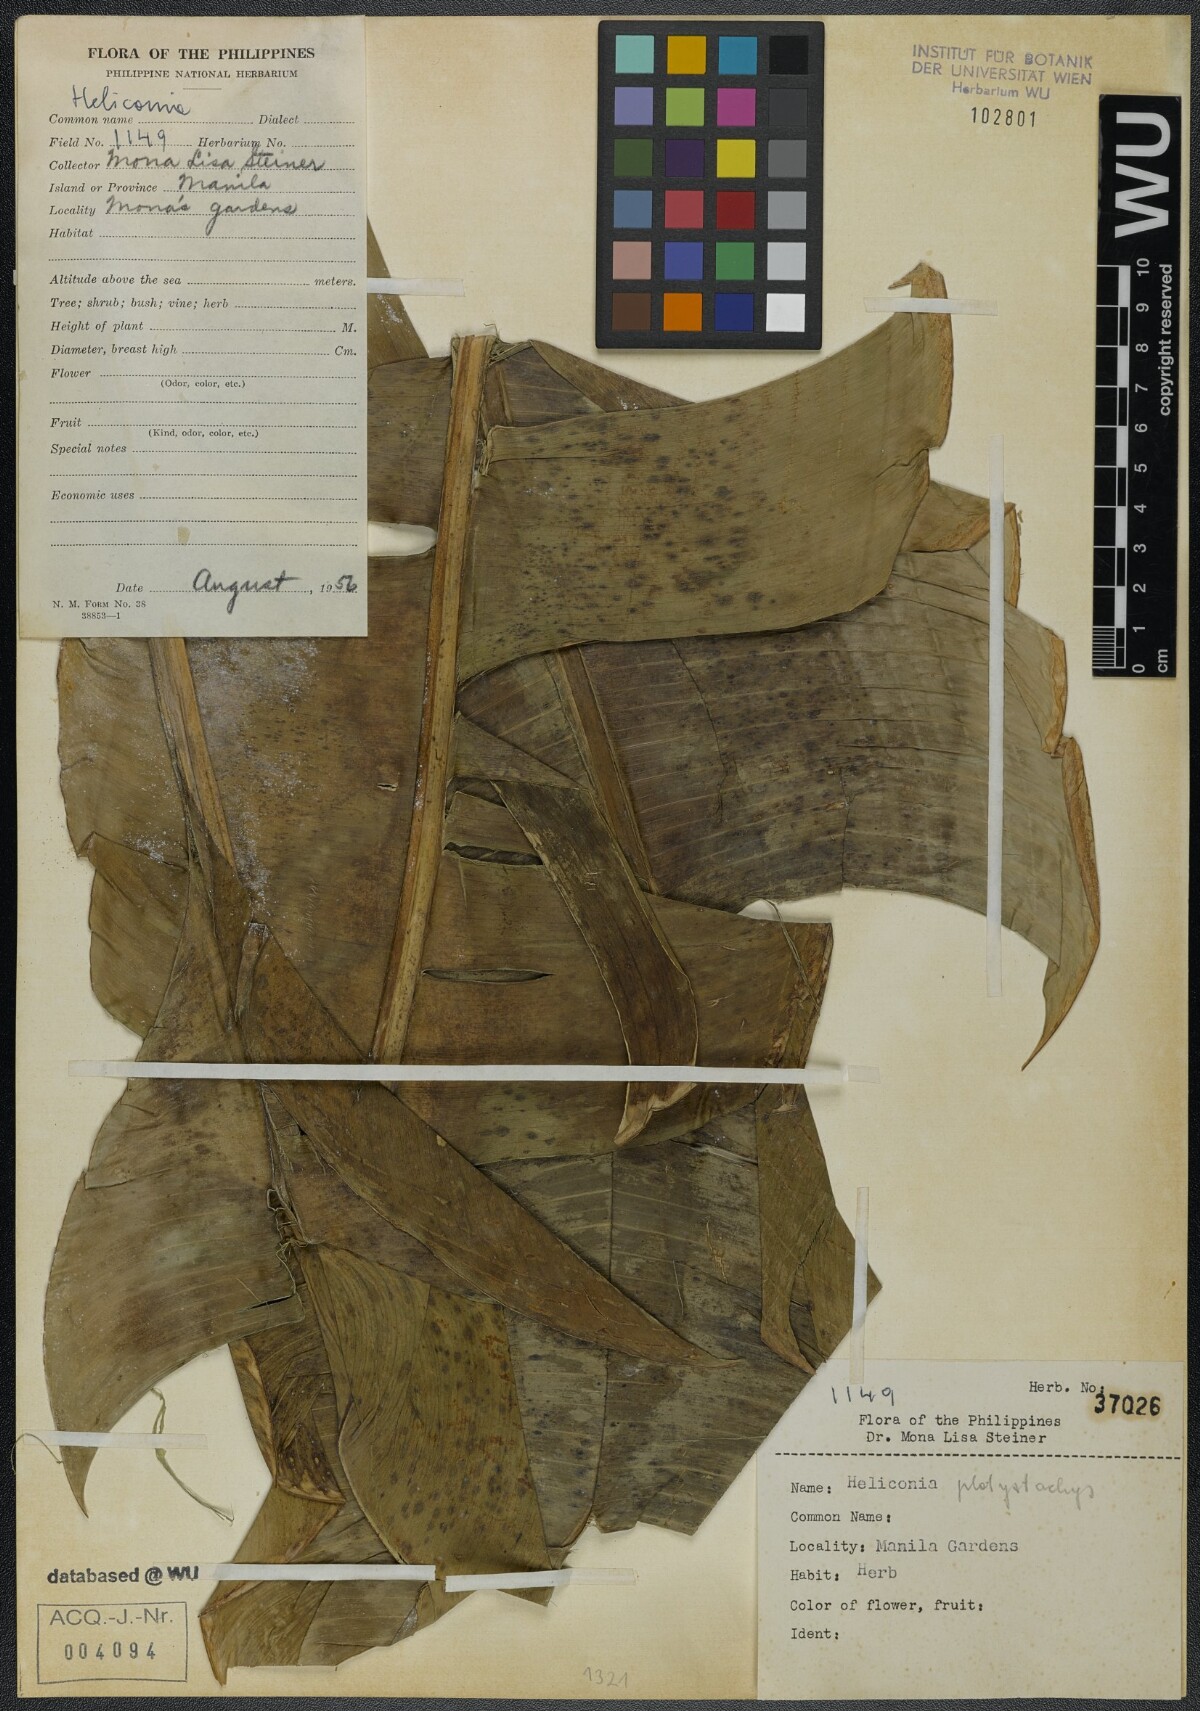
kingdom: Plantae
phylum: Tracheophyta
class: Liliopsida
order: Zingiberales
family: Heliconiaceae
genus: Heliconia
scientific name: Heliconia platystachys
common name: False bird of paradise
